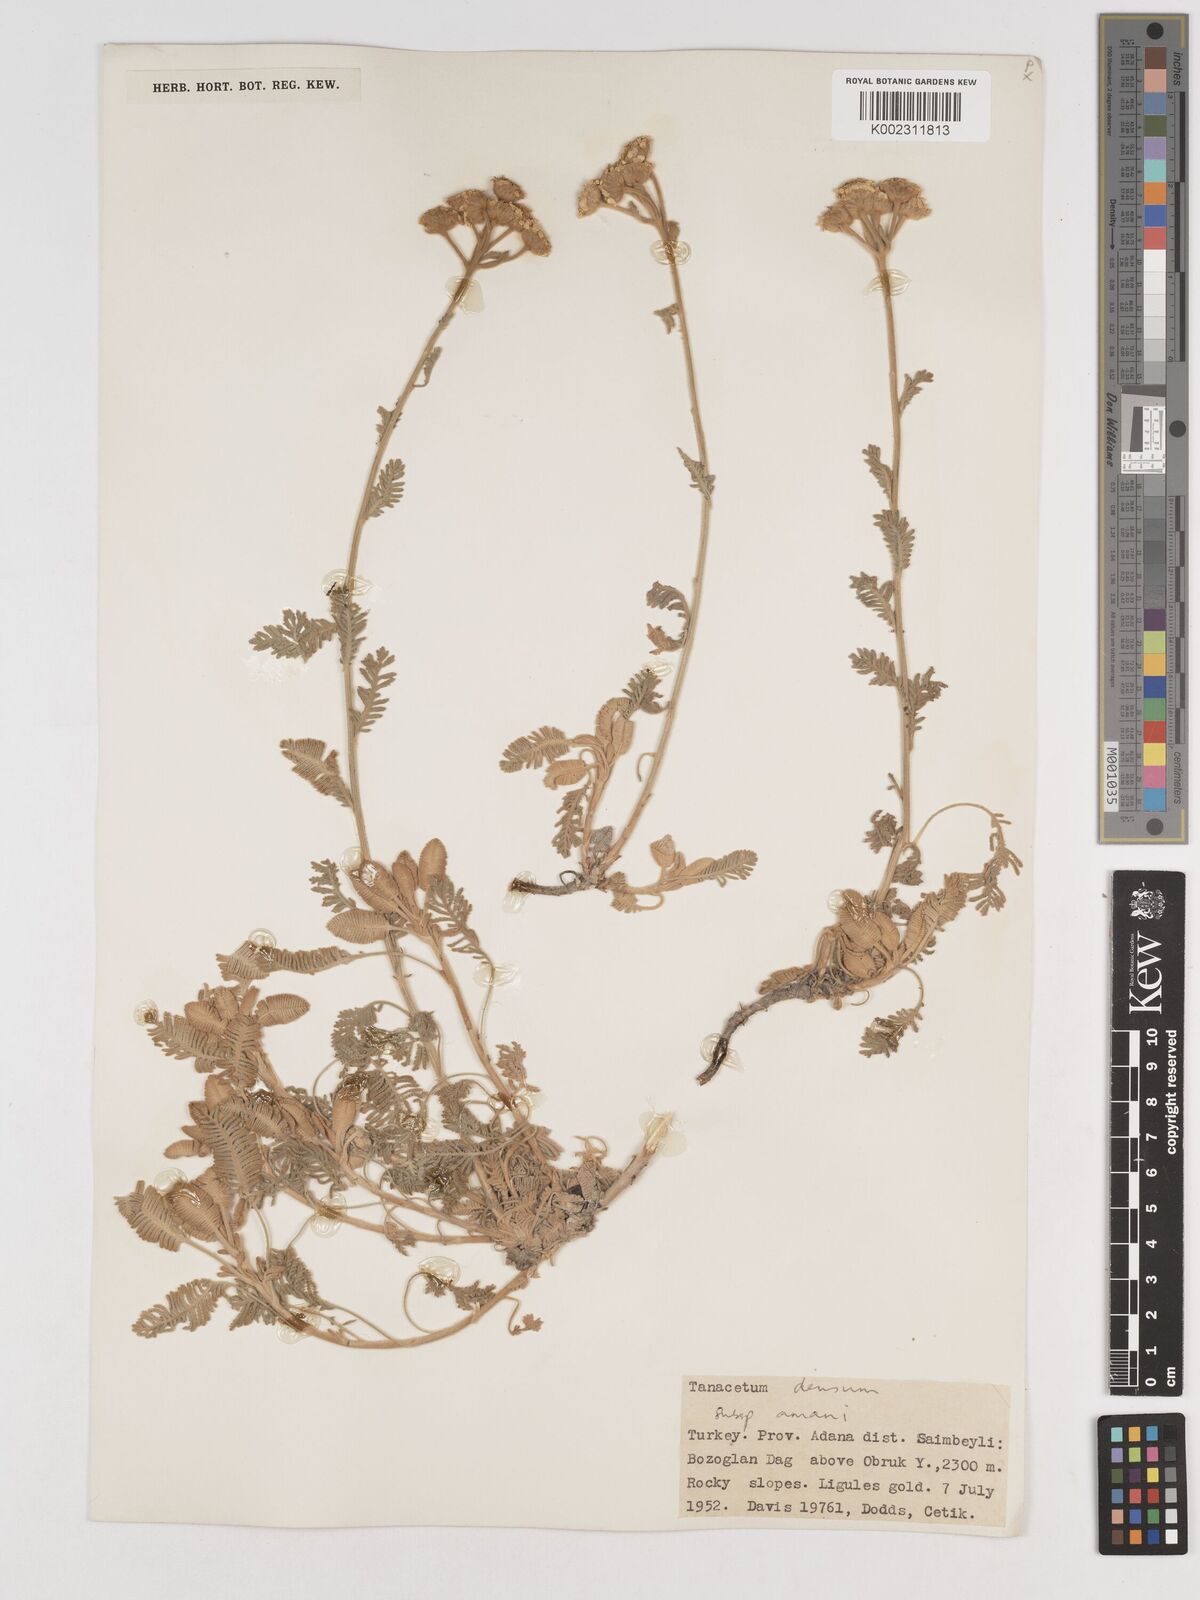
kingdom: Plantae
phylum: Tracheophyta
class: Magnoliopsida
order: Asterales
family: Asteraceae
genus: Tanacetum
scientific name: Tanacetum densum
